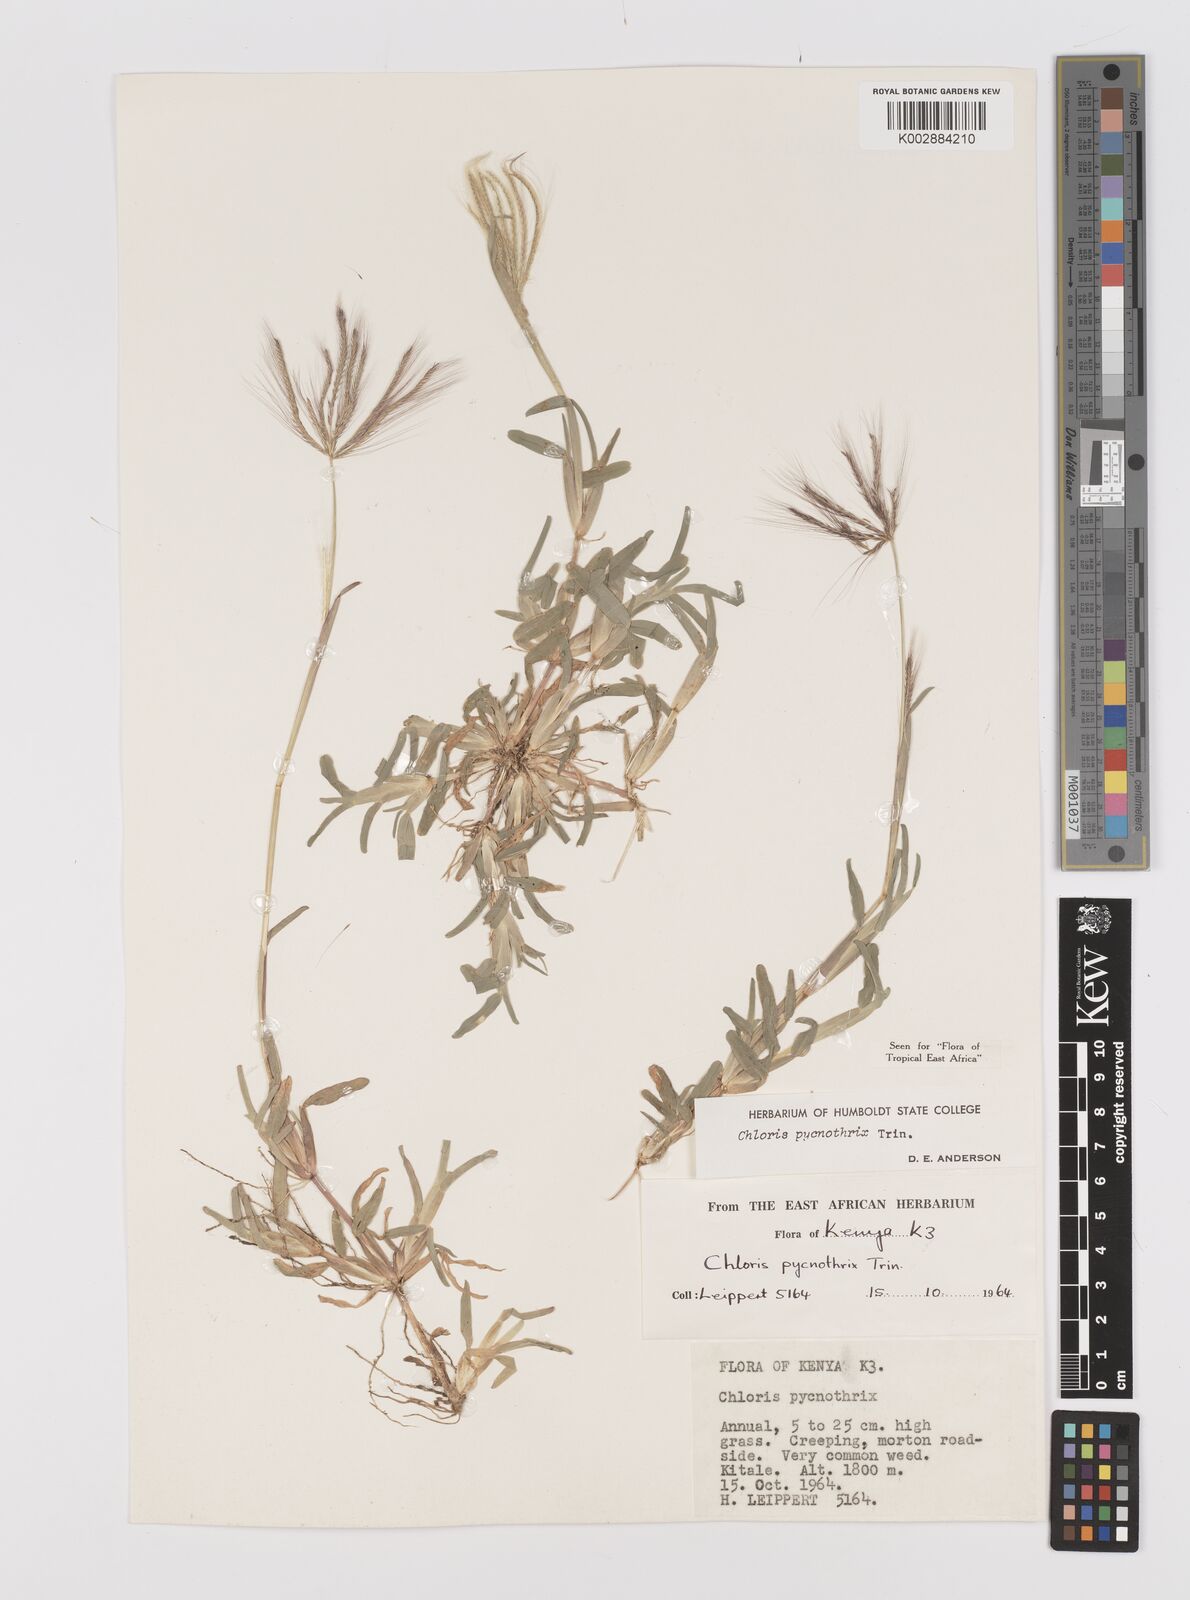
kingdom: Plantae
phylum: Tracheophyta
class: Liliopsida
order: Poales
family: Poaceae
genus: Chloris
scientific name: Chloris pycnothrix
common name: Spiderweb chloris
